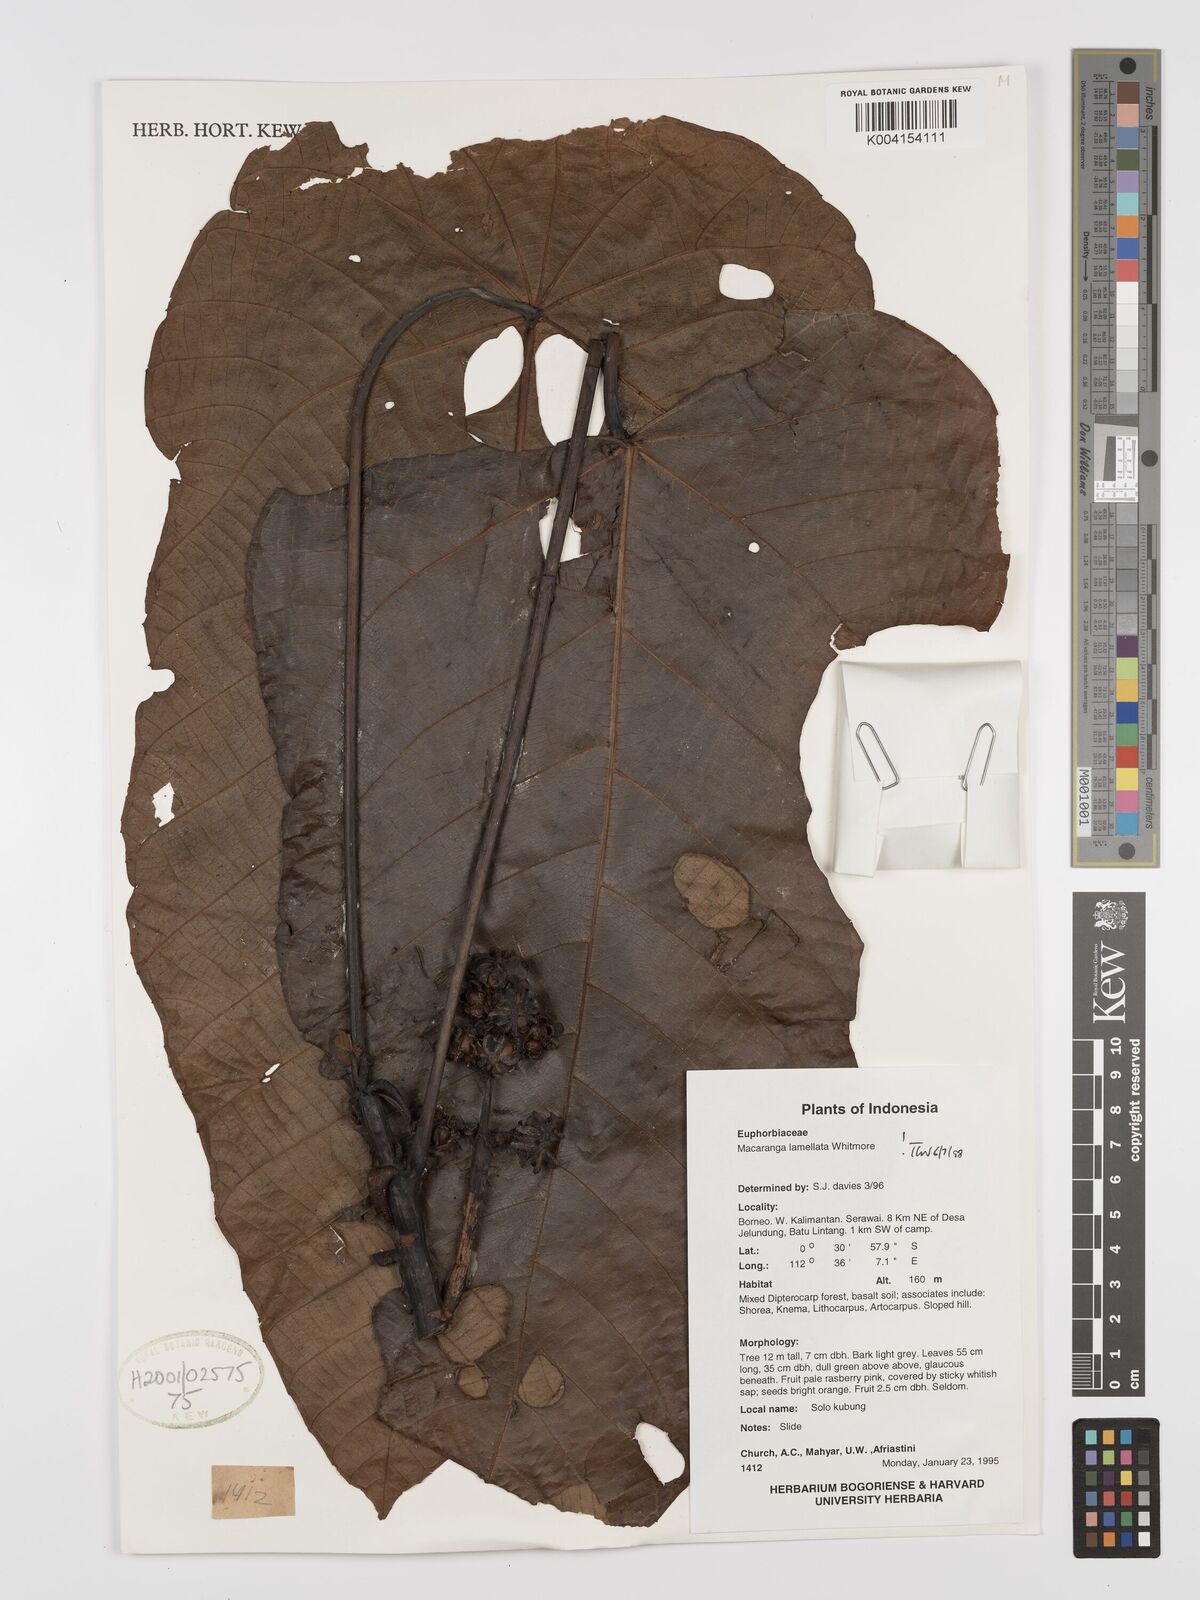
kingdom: Plantae
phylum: Tracheophyta
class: Magnoliopsida
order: Malpighiales
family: Euphorbiaceae
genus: Macaranga
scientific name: Macaranga lamellata
